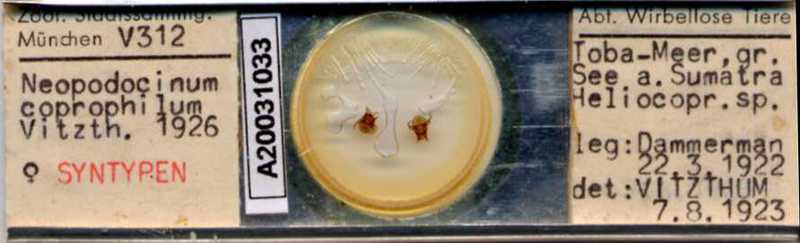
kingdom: Animalia
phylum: Arthropoda
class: Arachnida
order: Mesostigmata
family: Macrochelidae
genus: Neopodocinum
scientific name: Neopodocinum
